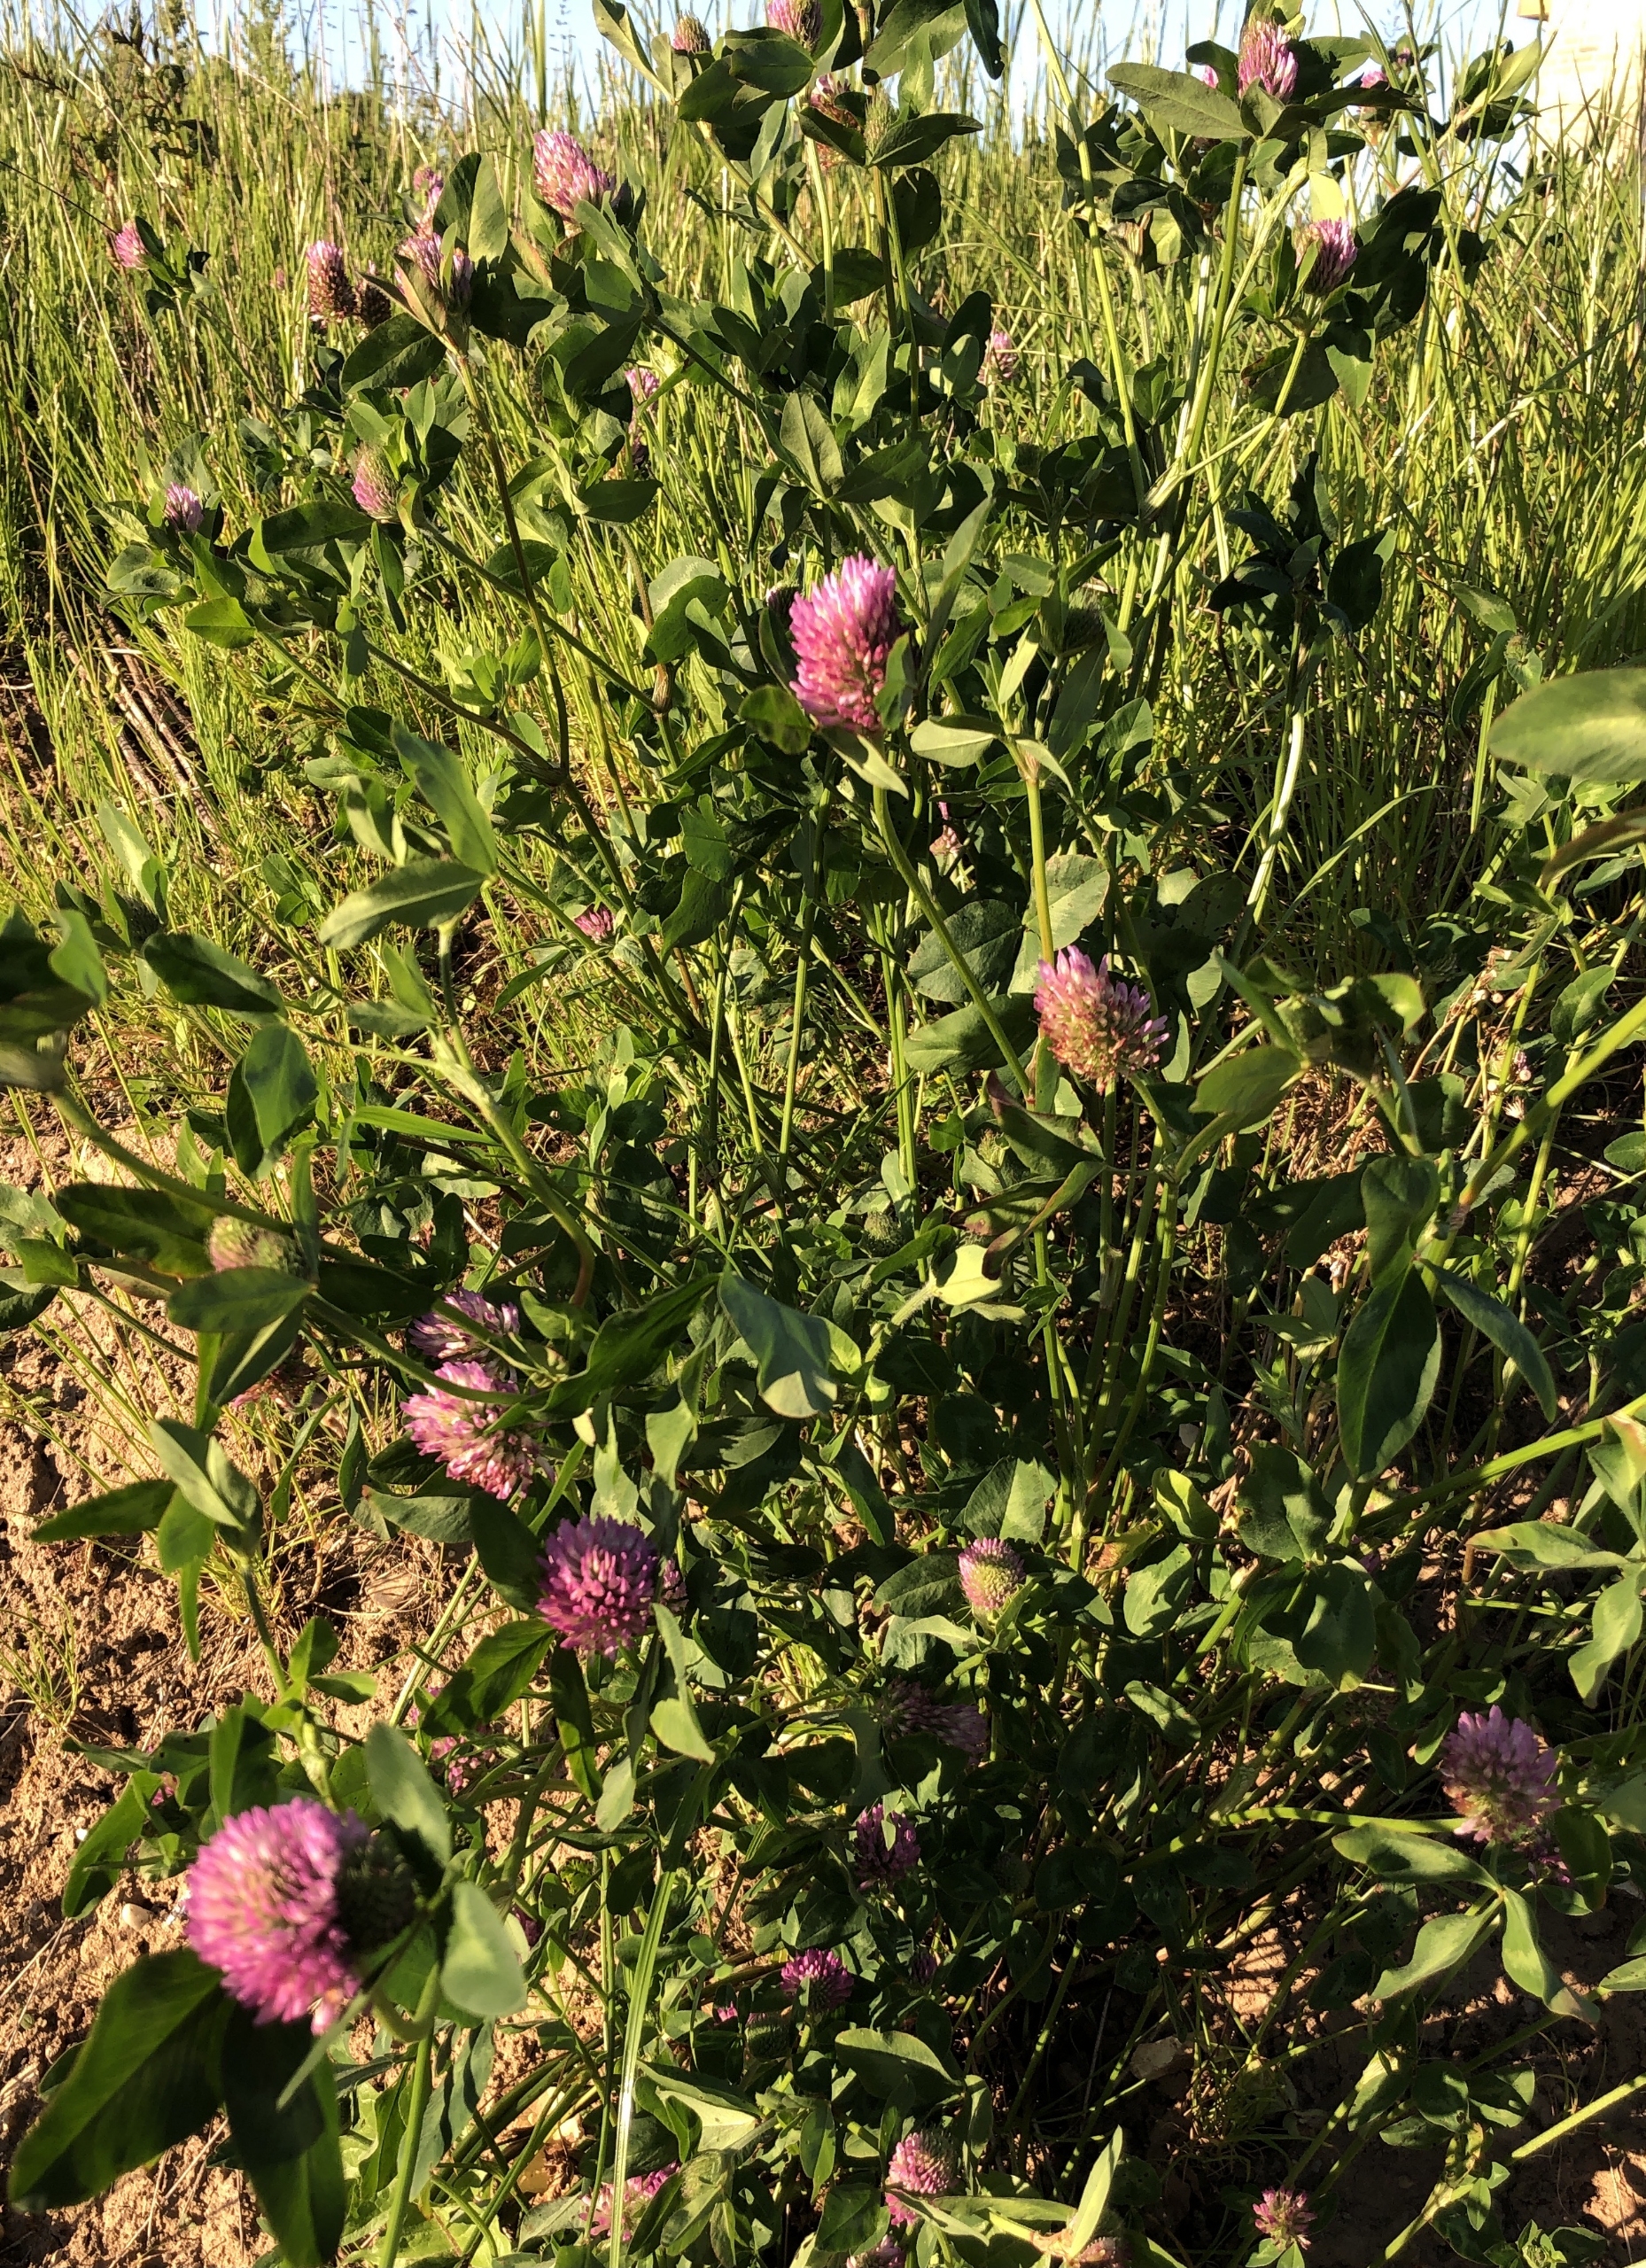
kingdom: Plantae
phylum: Tracheophyta
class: Magnoliopsida
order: Fabales
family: Fabaceae
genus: Trifolium
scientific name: Trifolium pratense
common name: Rød-kløver
